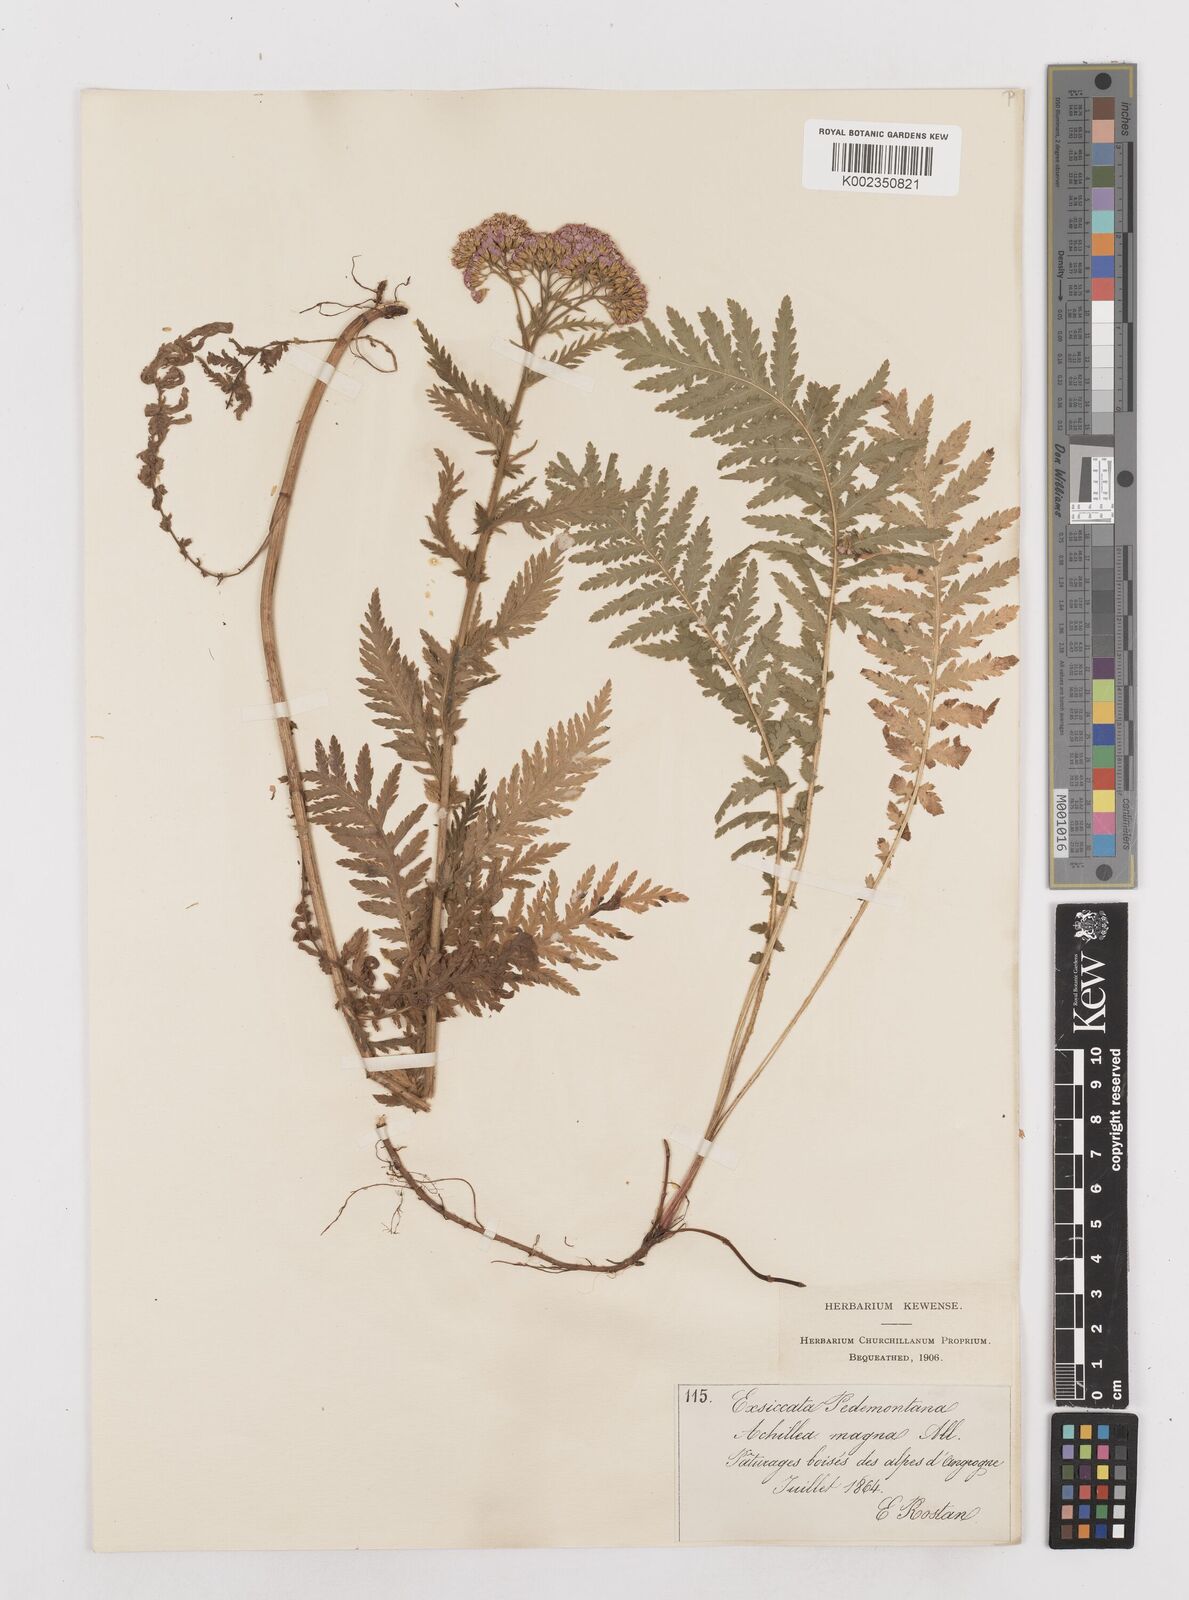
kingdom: Plantae
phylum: Tracheophyta
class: Magnoliopsida
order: Asterales
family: Asteraceae
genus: Achillea
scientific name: Achillea distans
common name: Tall yarrow
